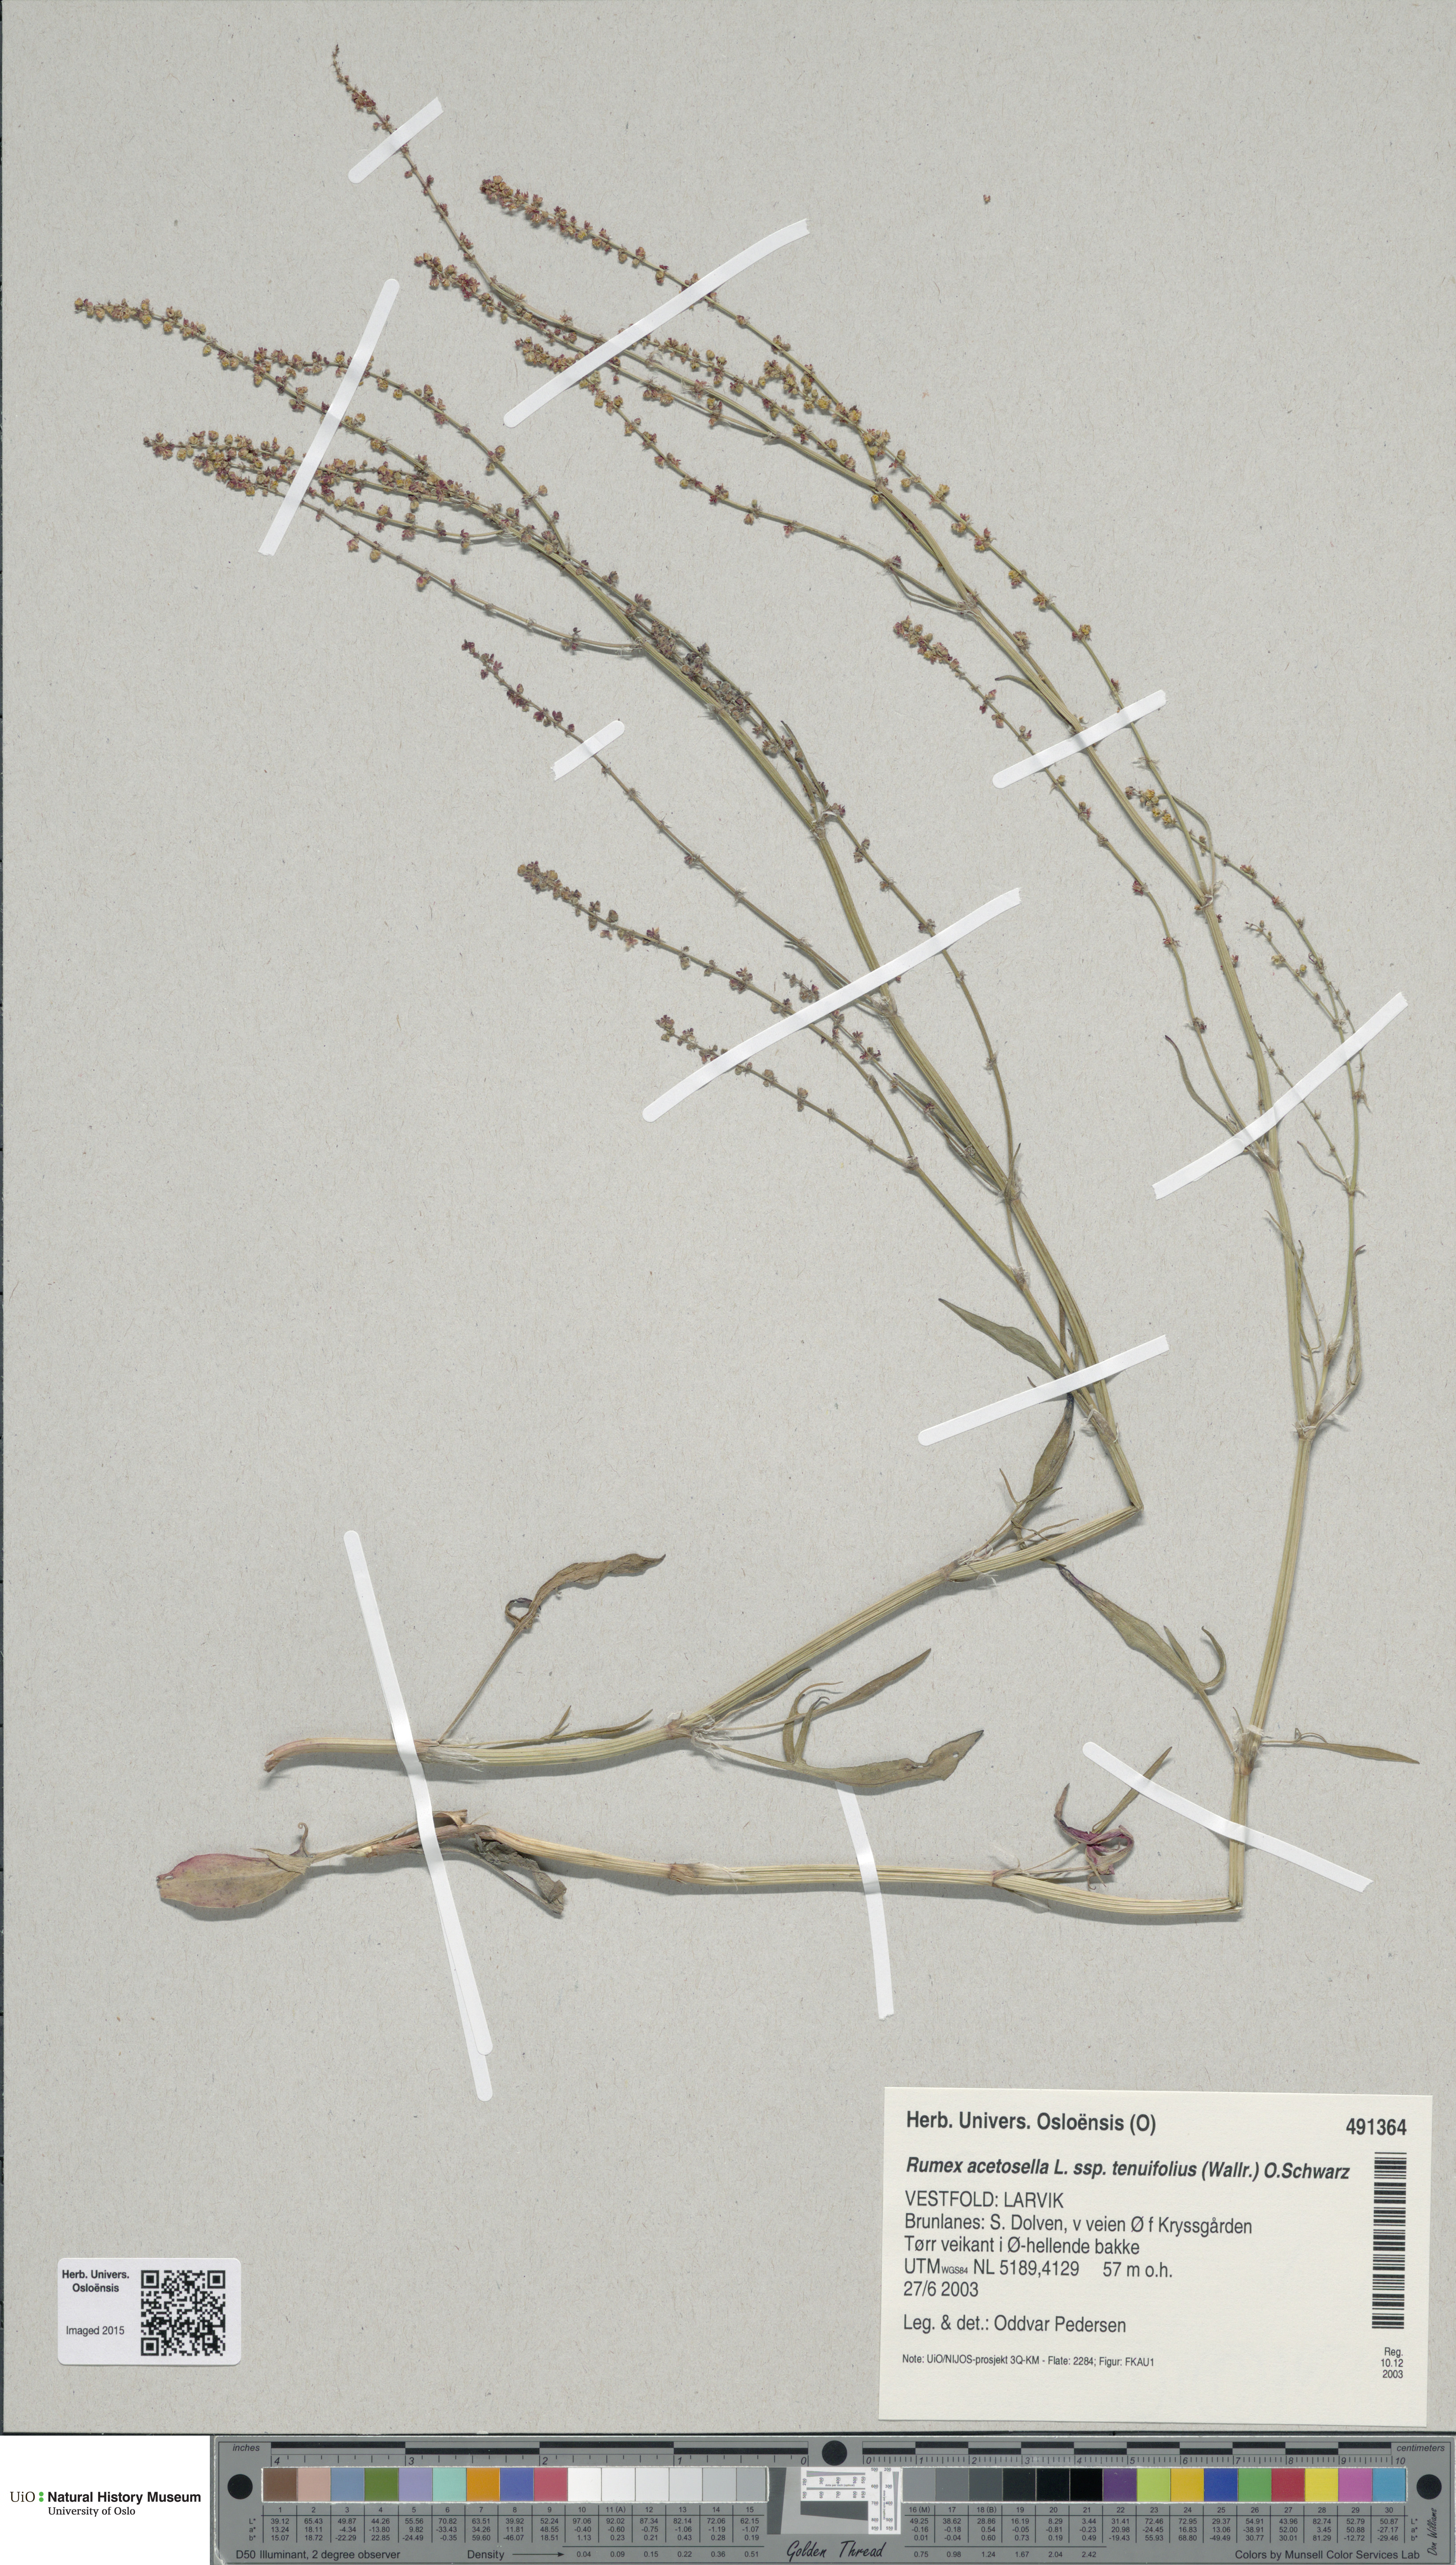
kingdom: Plantae
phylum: Tracheophyta
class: Magnoliopsida
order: Caryophyllales
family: Polygonaceae
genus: Rumex
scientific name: Rumex acetosella
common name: Common sheep sorrel
